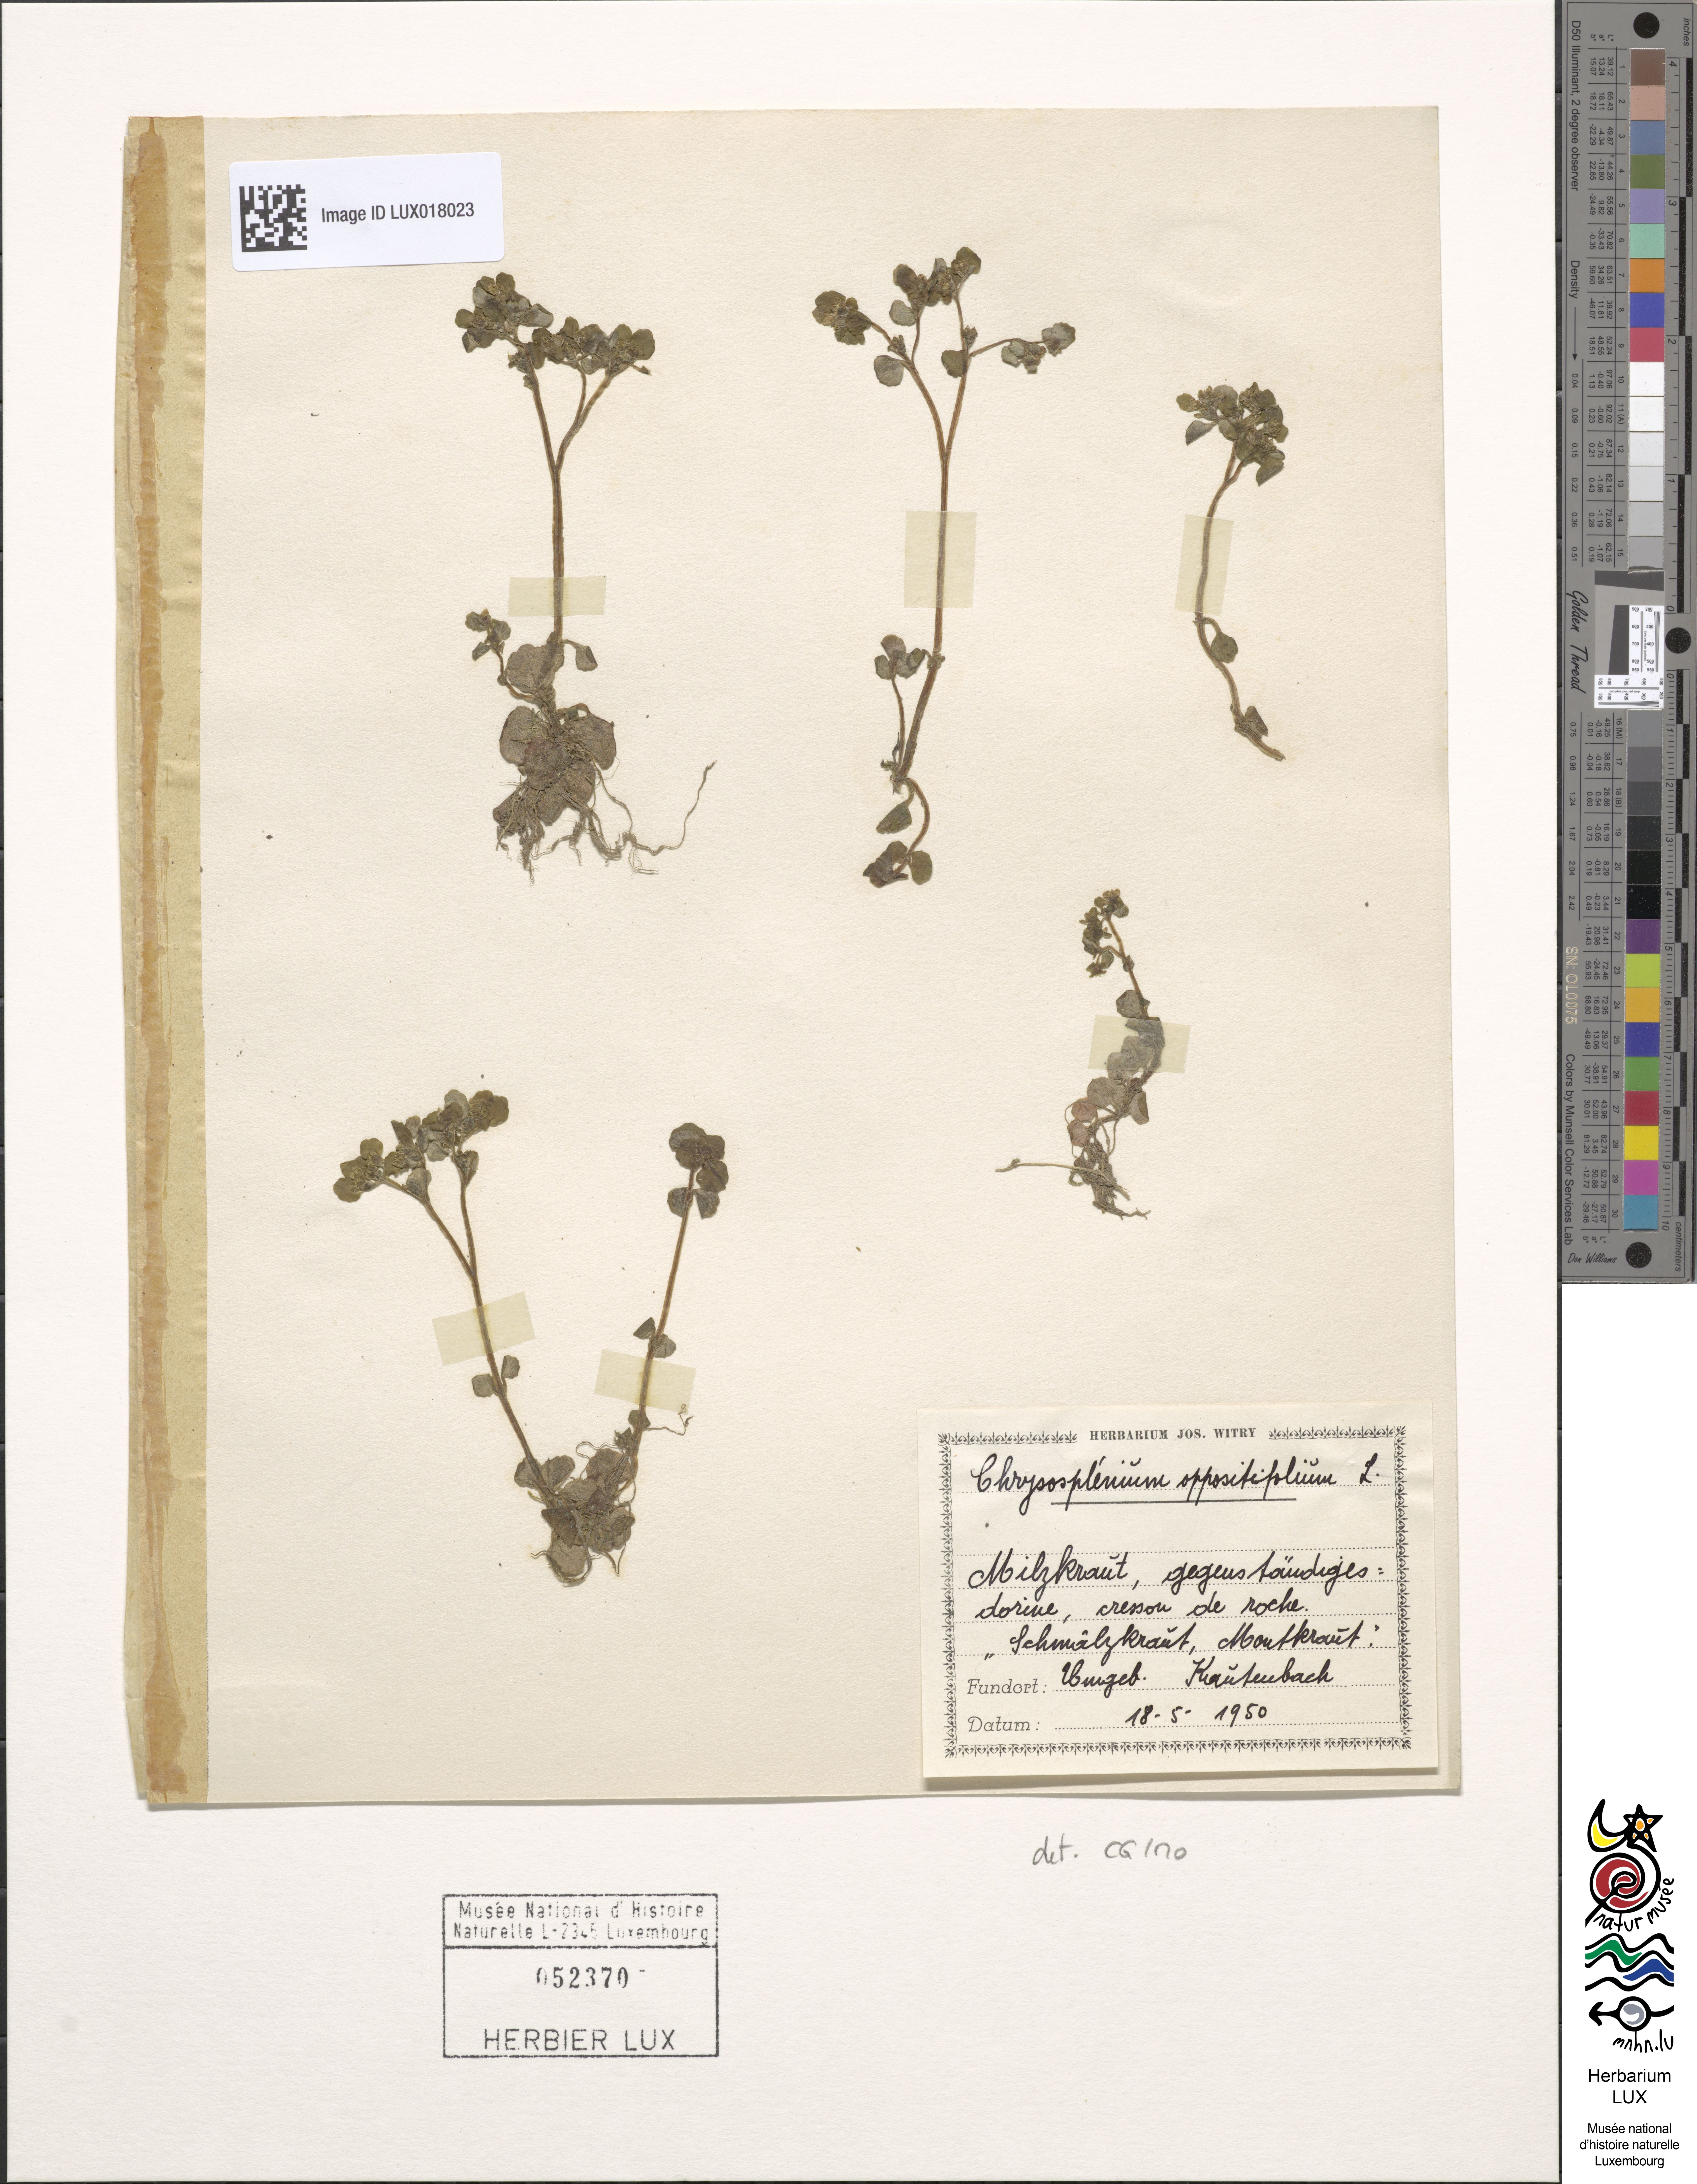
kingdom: Plantae
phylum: Tracheophyta
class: Magnoliopsida
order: Saxifragales
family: Saxifragaceae
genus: Chrysosplenium
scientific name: Chrysosplenium oppositifolium
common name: Opposite-leaved golden-saxifrage
